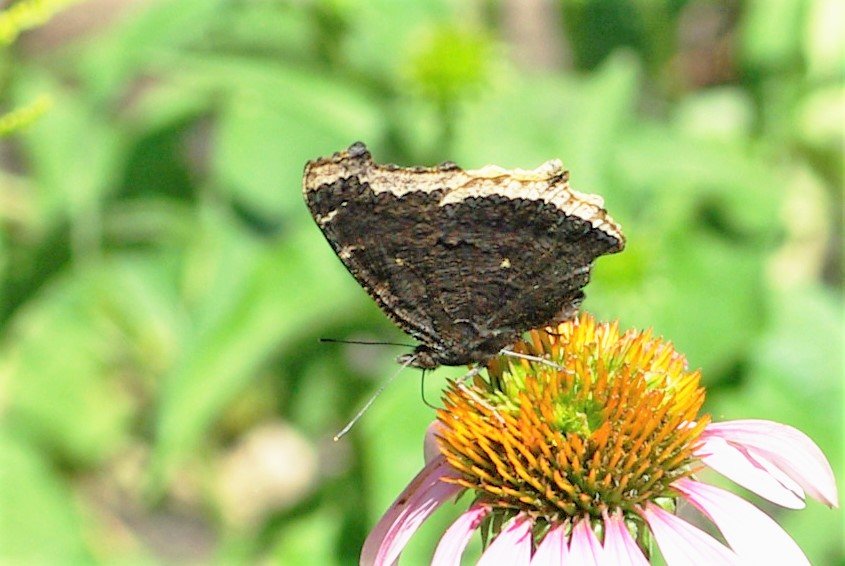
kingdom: Animalia
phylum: Arthropoda
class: Insecta
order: Lepidoptera
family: Nymphalidae
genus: Nymphalis
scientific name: Nymphalis antiopa
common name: Mourning Cloak
